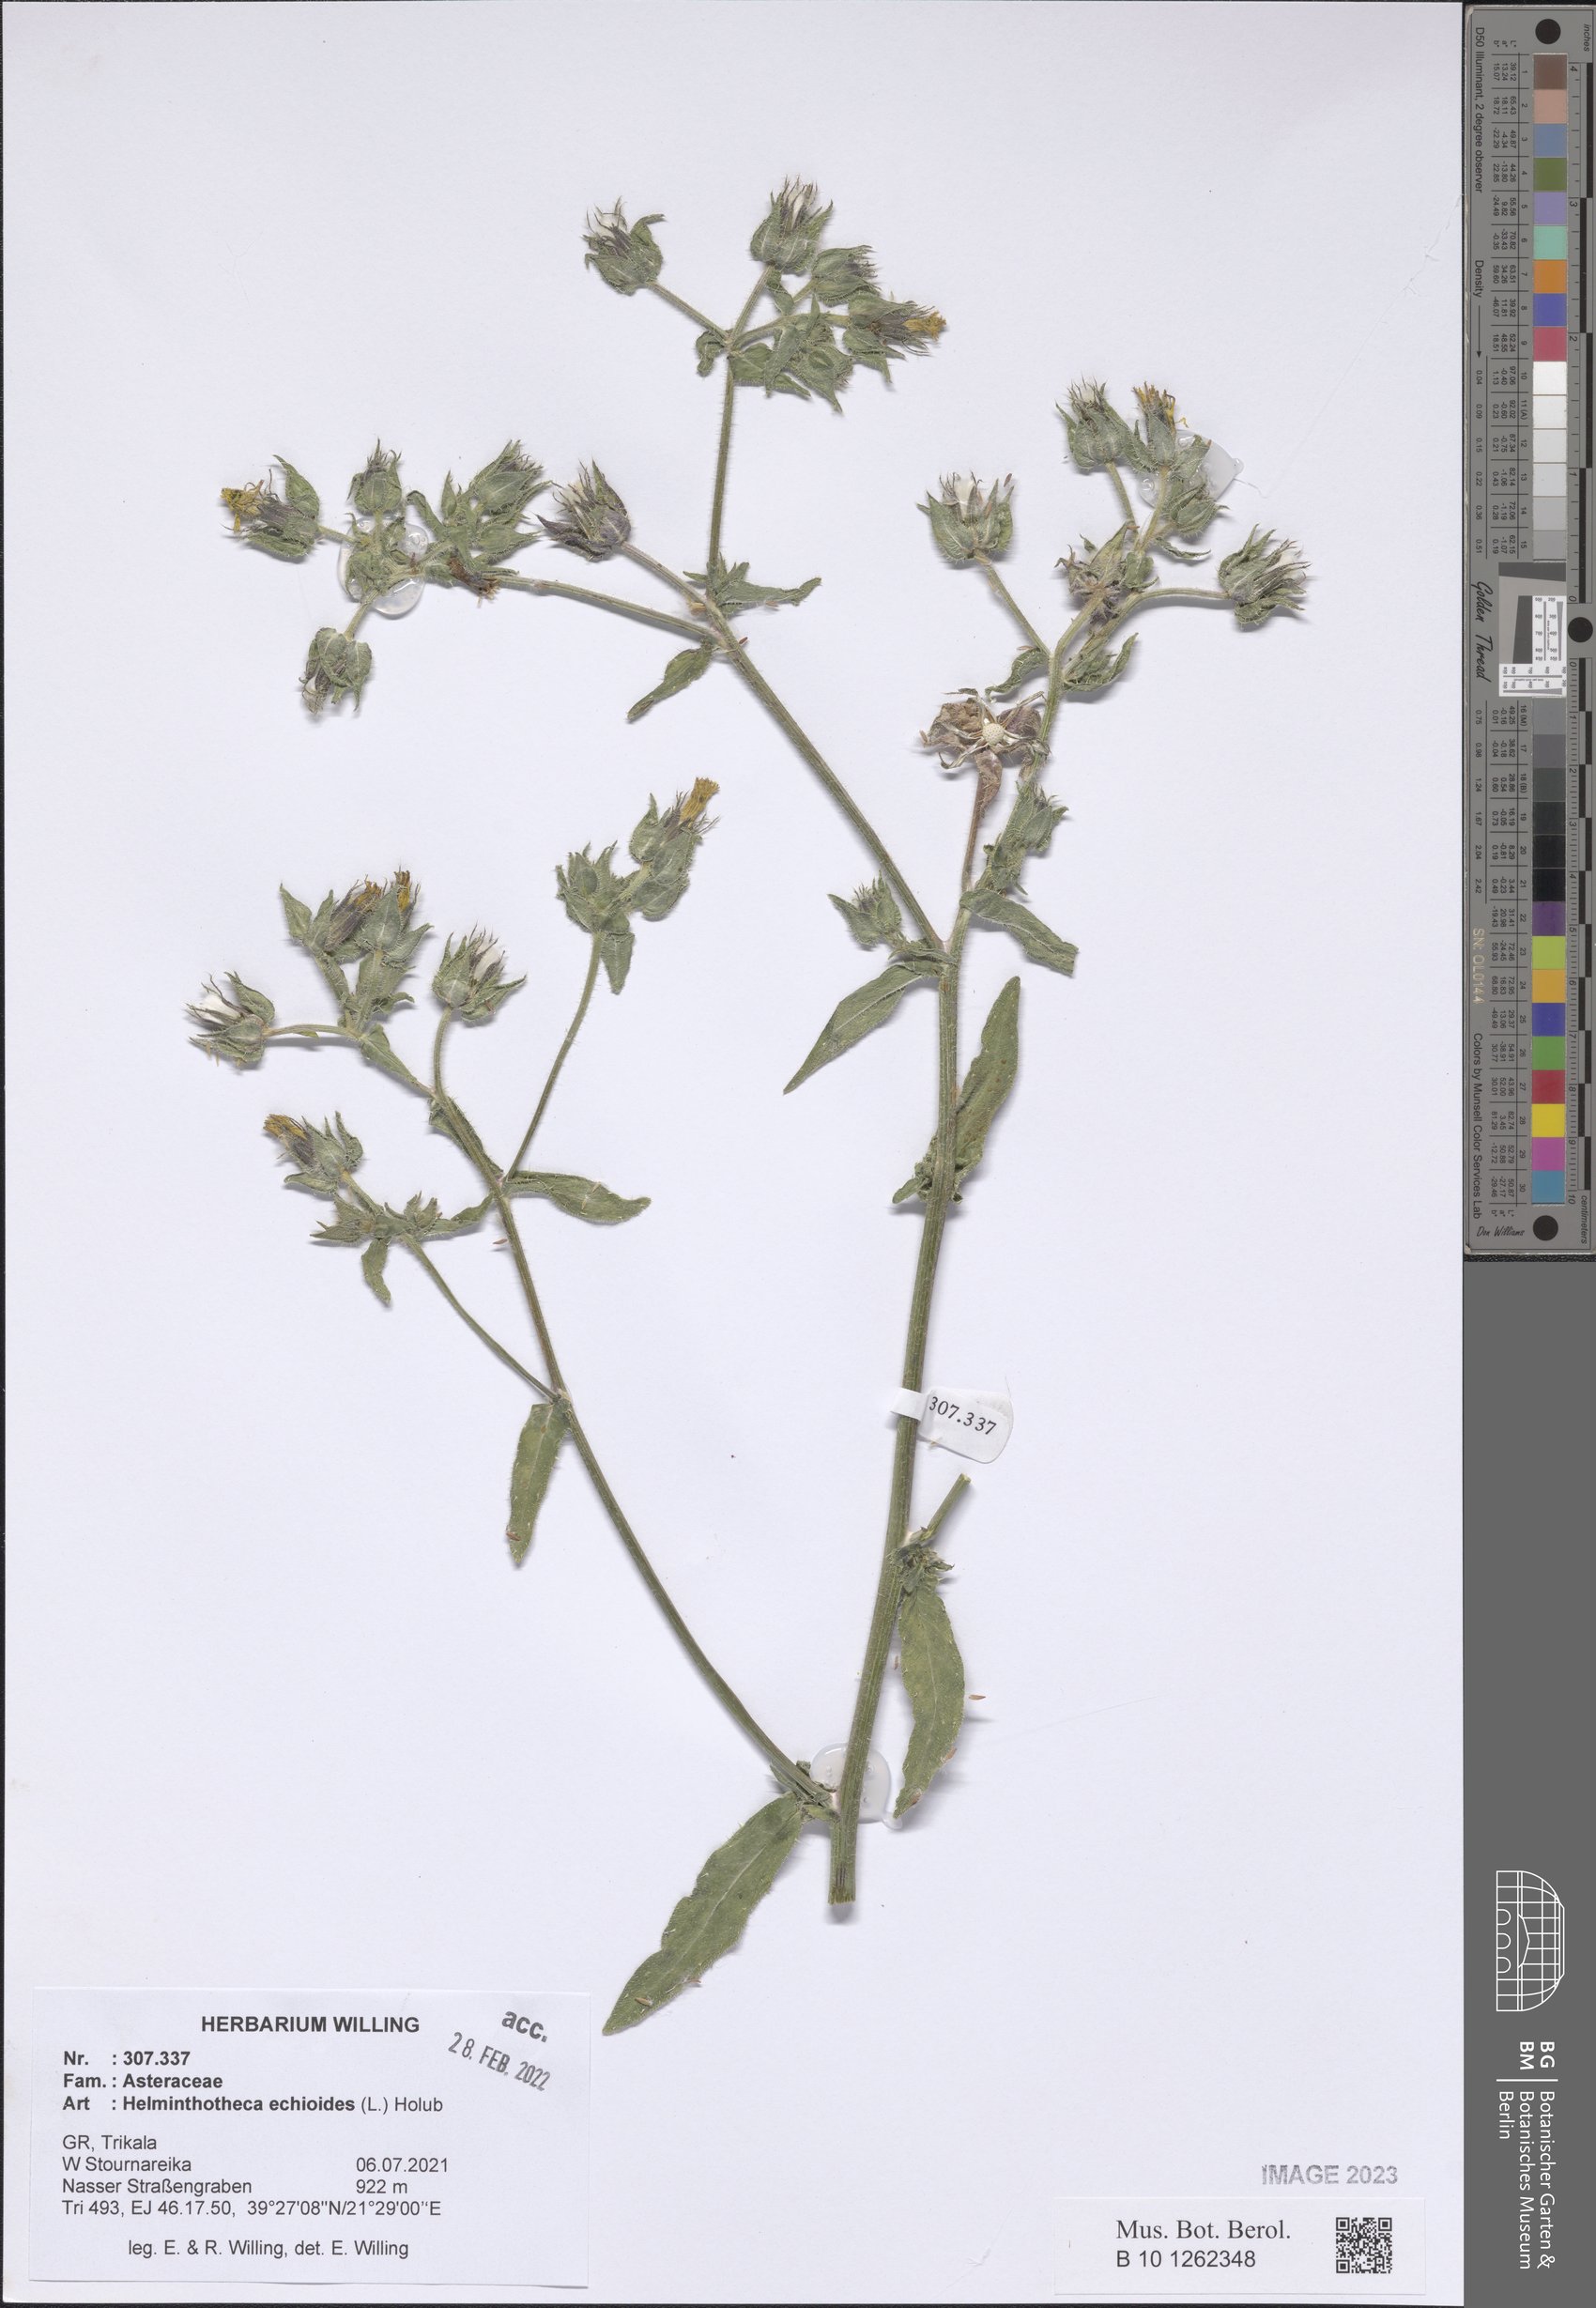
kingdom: Plantae
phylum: Tracheophyta
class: Magnoliopsida
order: Asterales
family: Asteraceae
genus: Helminthotheca
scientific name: Helminthotheca echioides
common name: Ox-tongue
